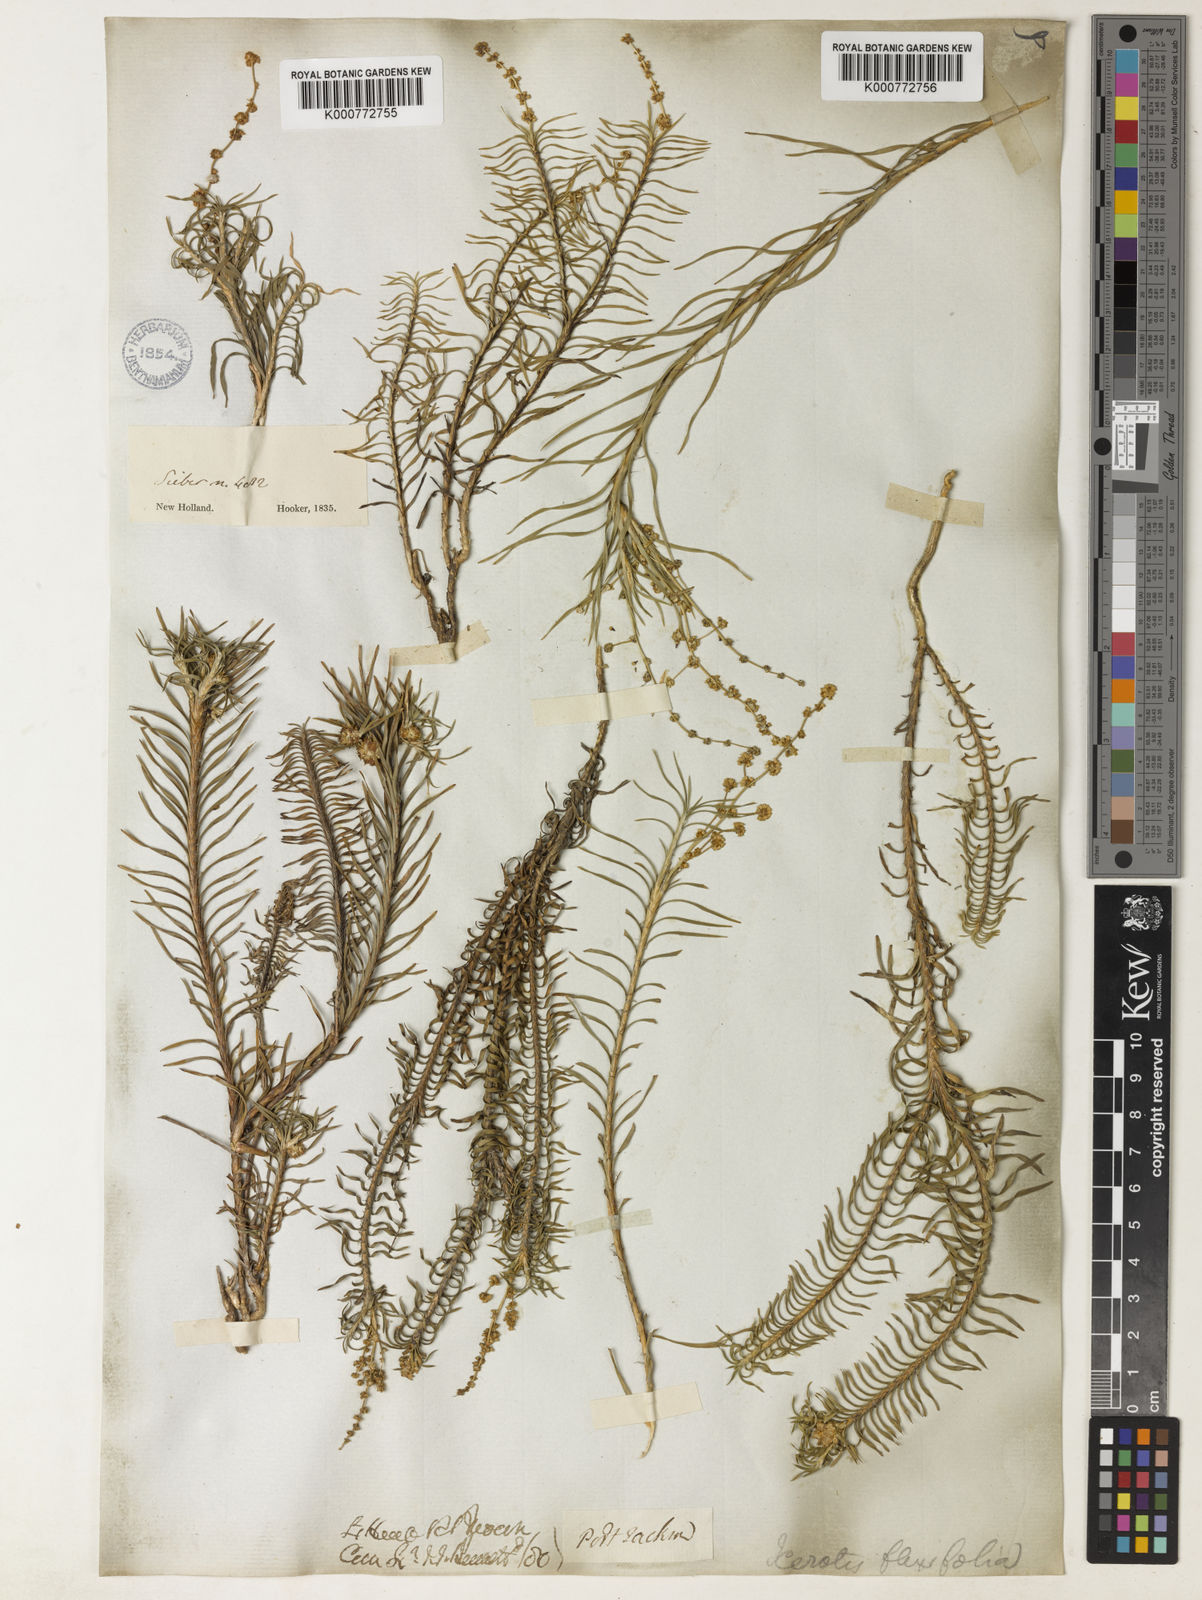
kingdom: Plantae
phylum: Tracheophyta
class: Liliopsida
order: Asparagales
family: Asparagaceae
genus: Lomandra
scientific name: Lomandra obliqua
